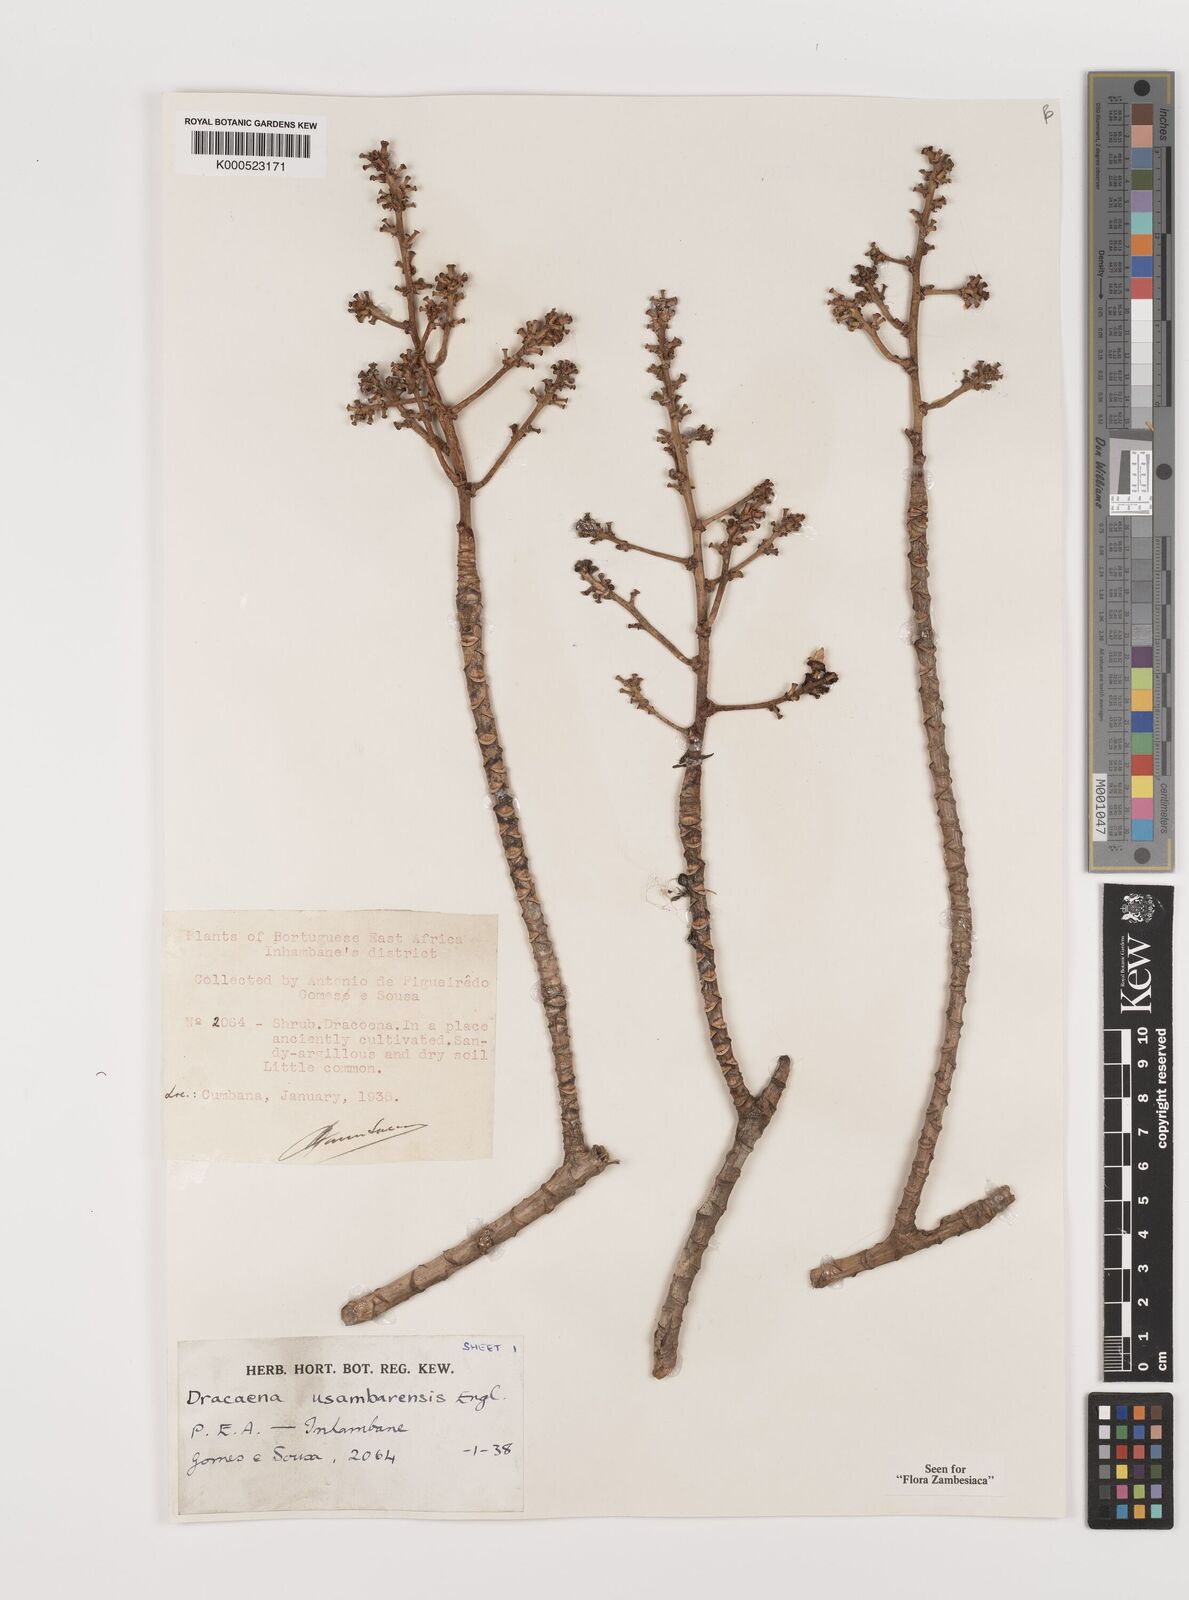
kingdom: Plantae
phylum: Tracheophyta
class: Liliopsida
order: Asparagales
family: Asparagaceae
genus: Dracaena
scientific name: Dracaena usambarensis
